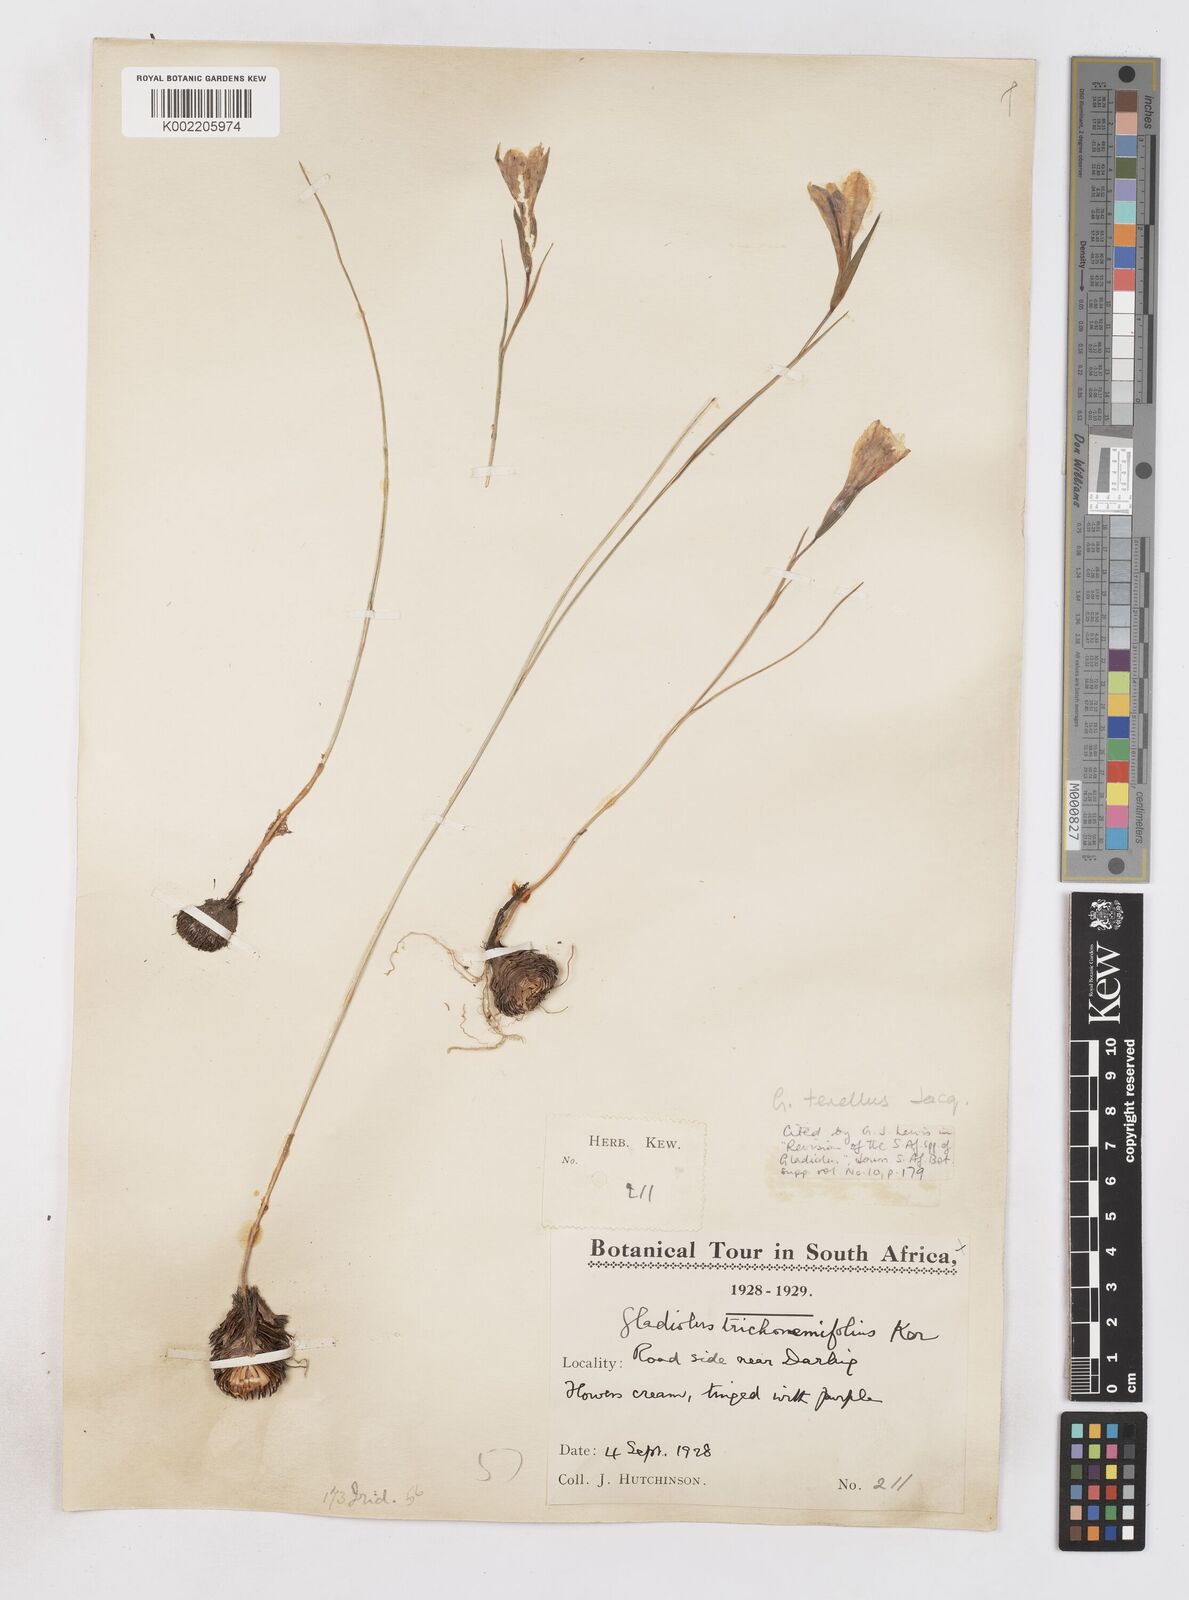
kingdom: Plantae
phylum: Tracheophyta
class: Liliopsida
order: Asparagales
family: Iridaceae
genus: Gladiolus
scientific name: Gladiolus carinatus
